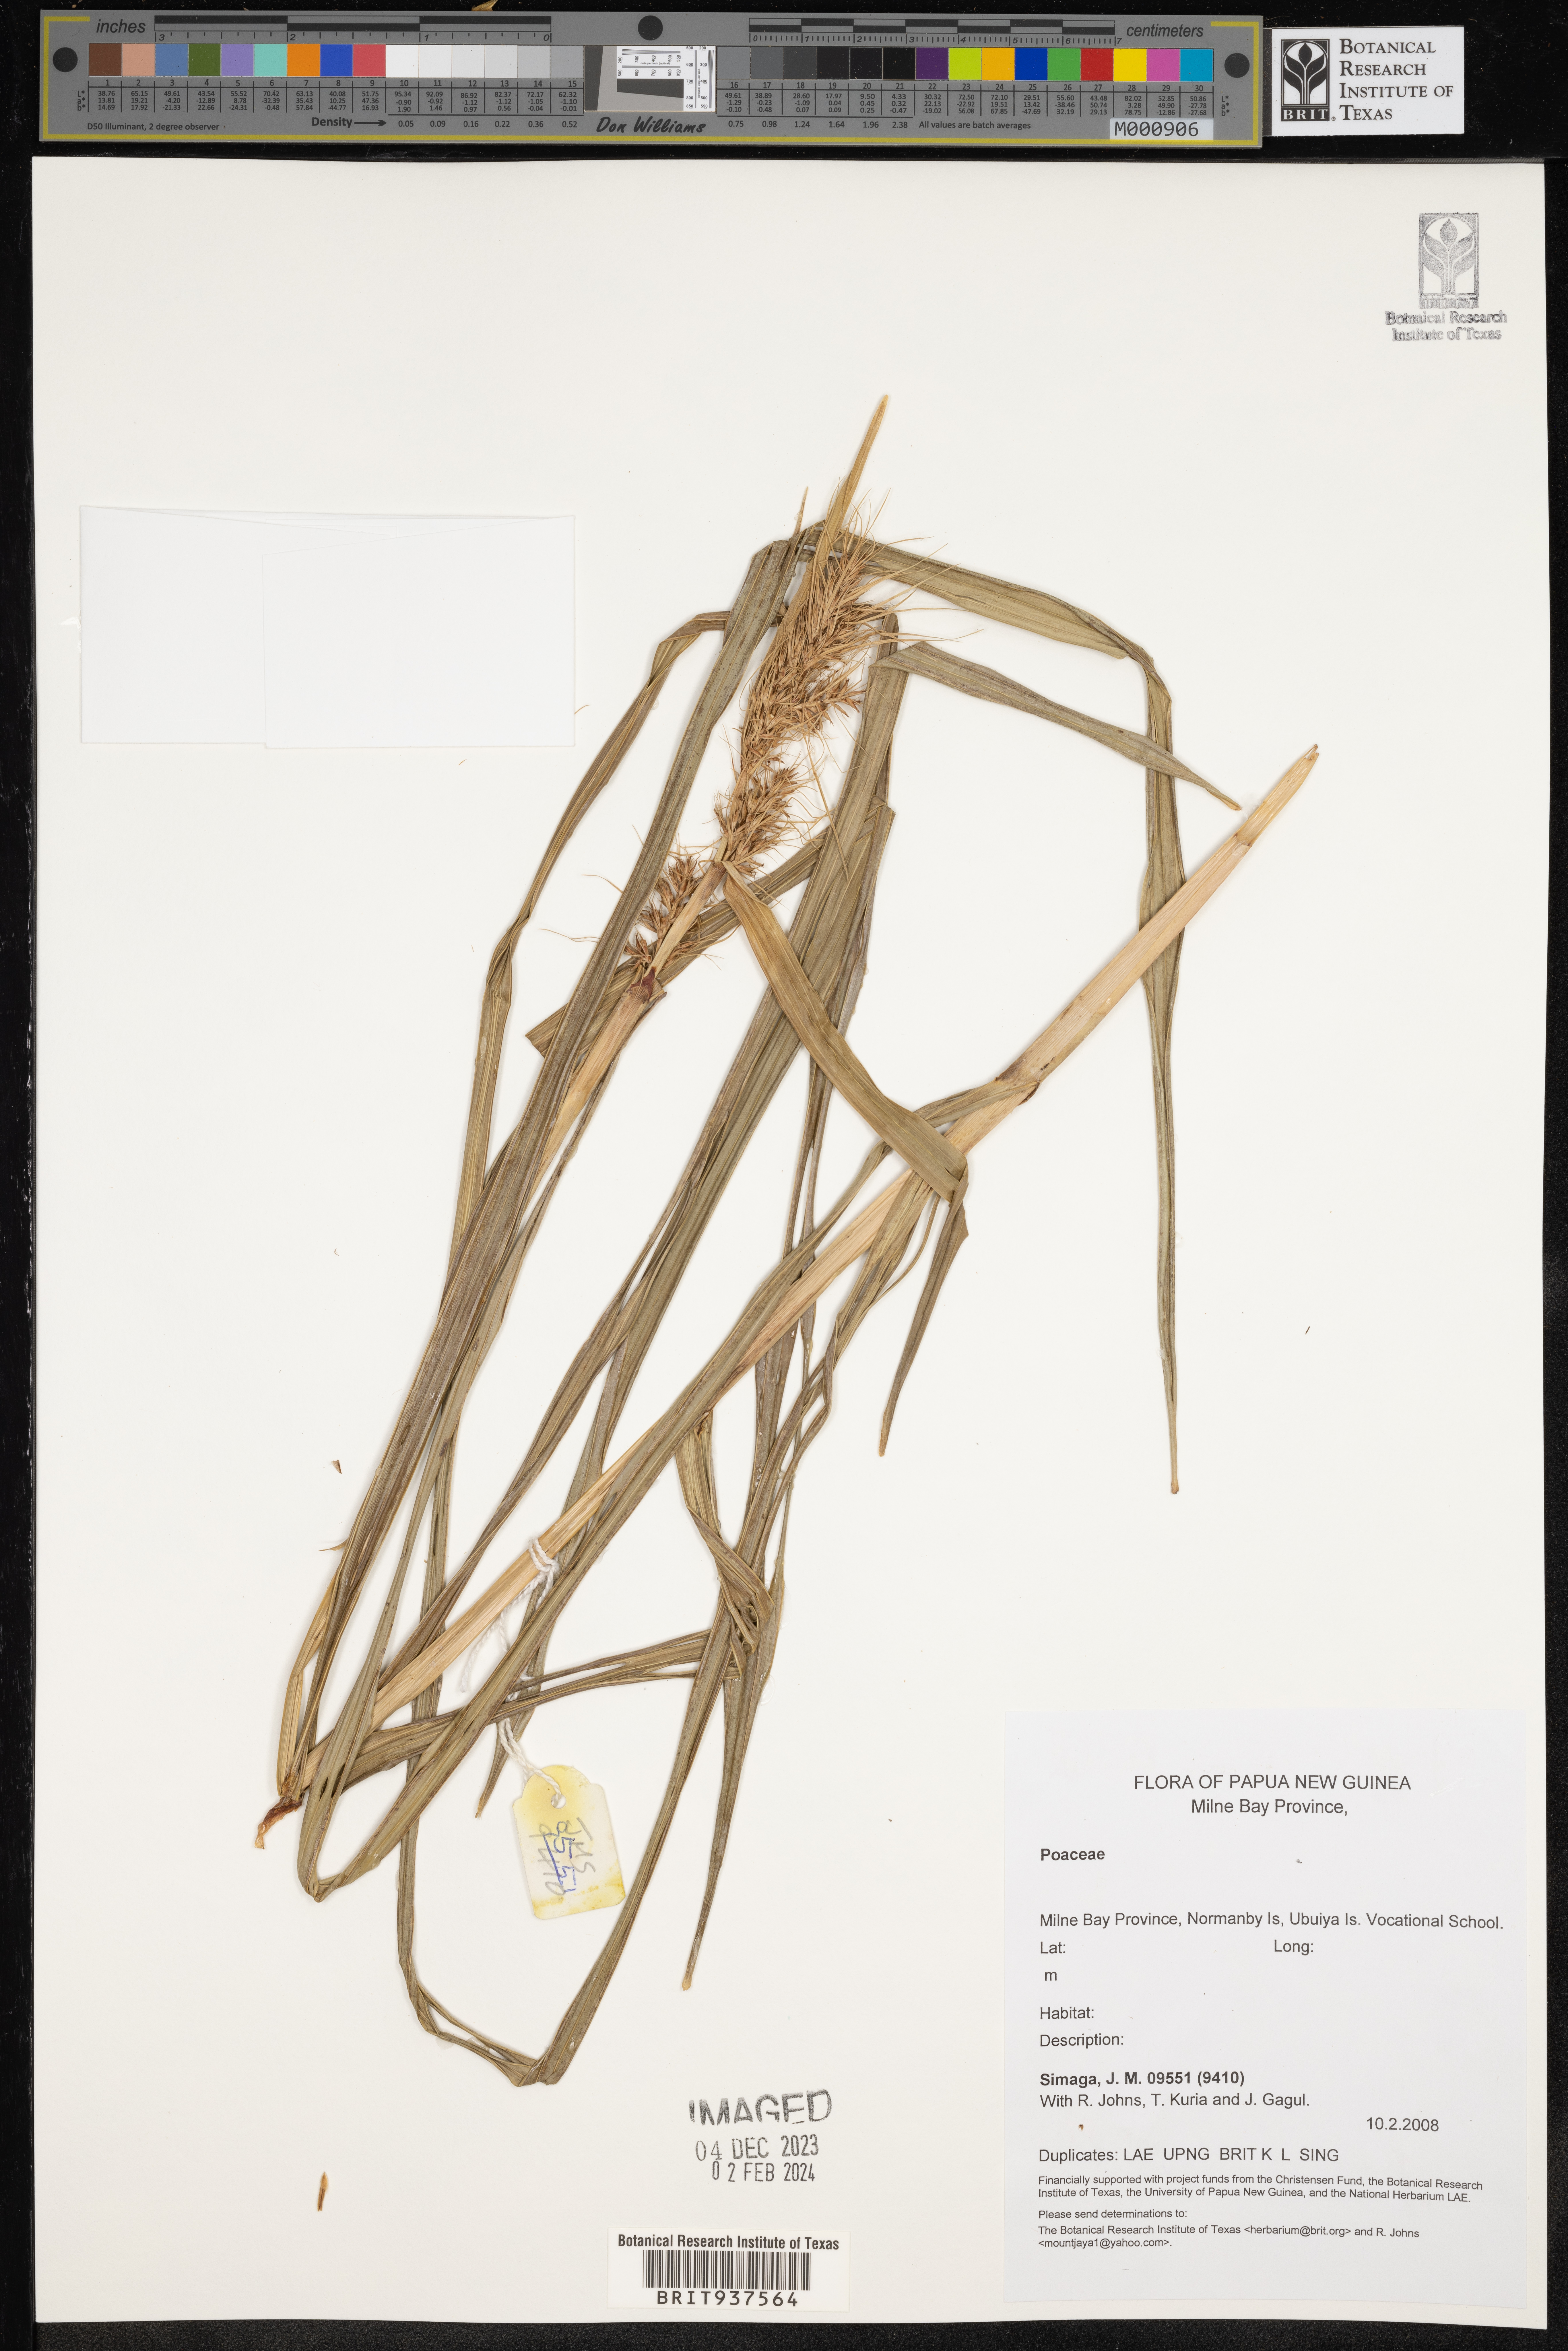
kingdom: Plantae
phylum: Tracheophyta
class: Liliopsida
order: Poales
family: Poaceae
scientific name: Poaceae
